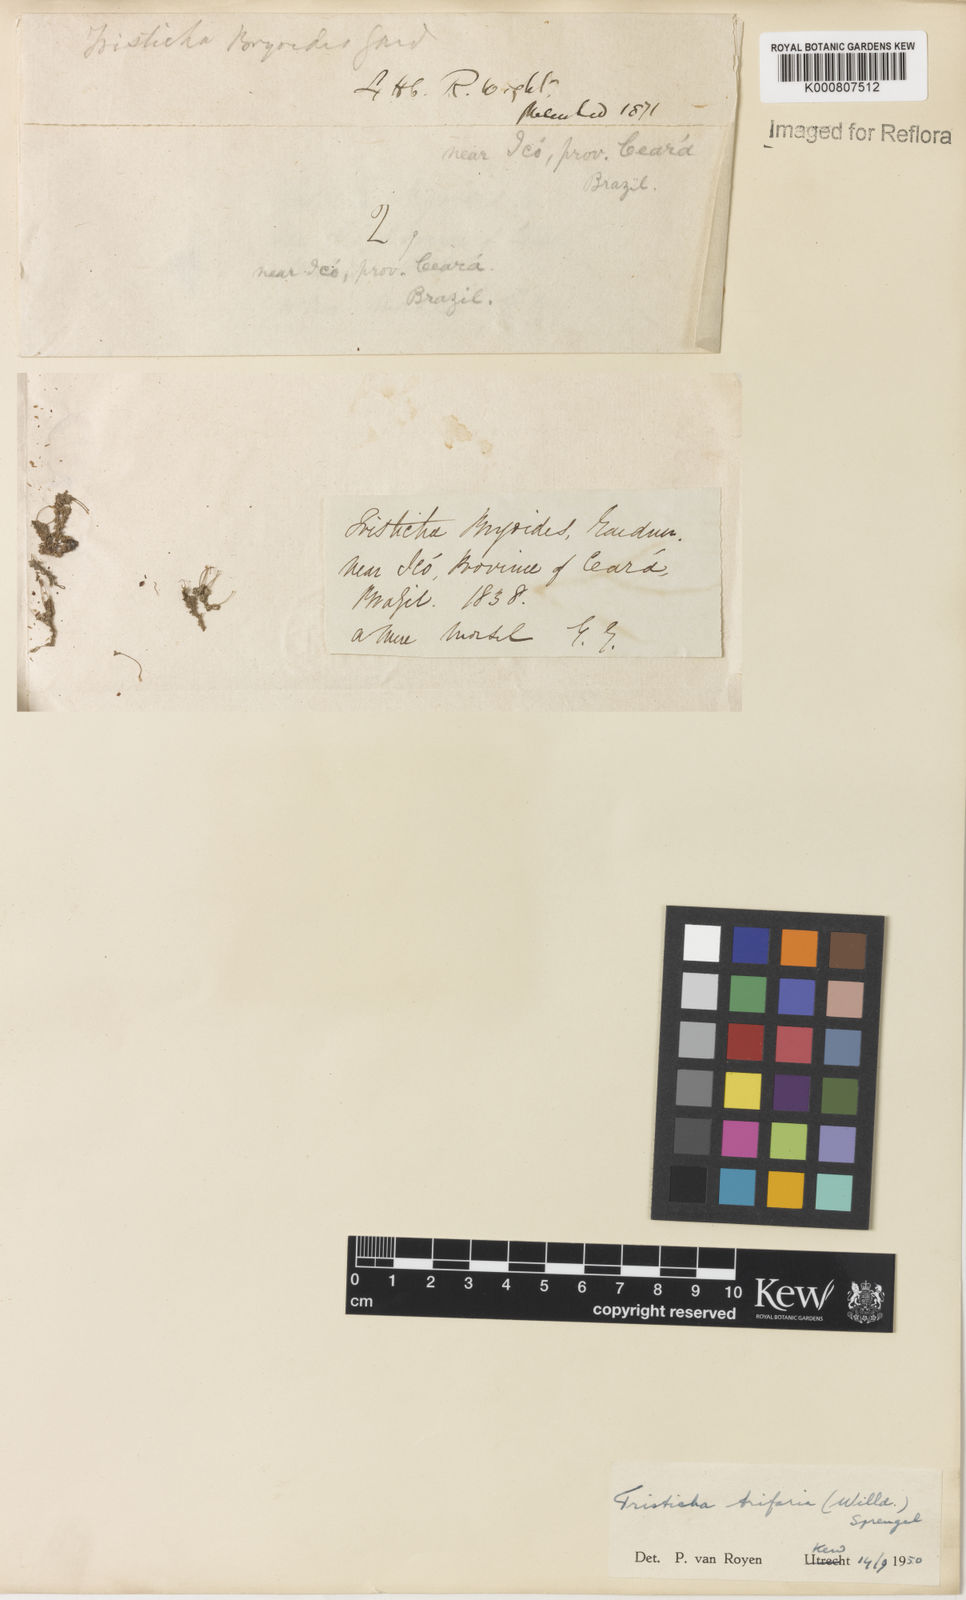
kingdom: Plantae
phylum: Tracheophyta
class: Magnoliopsida
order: Malpighiales
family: Podostemaceae
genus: Tristicha
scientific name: Tristicha trifaria
